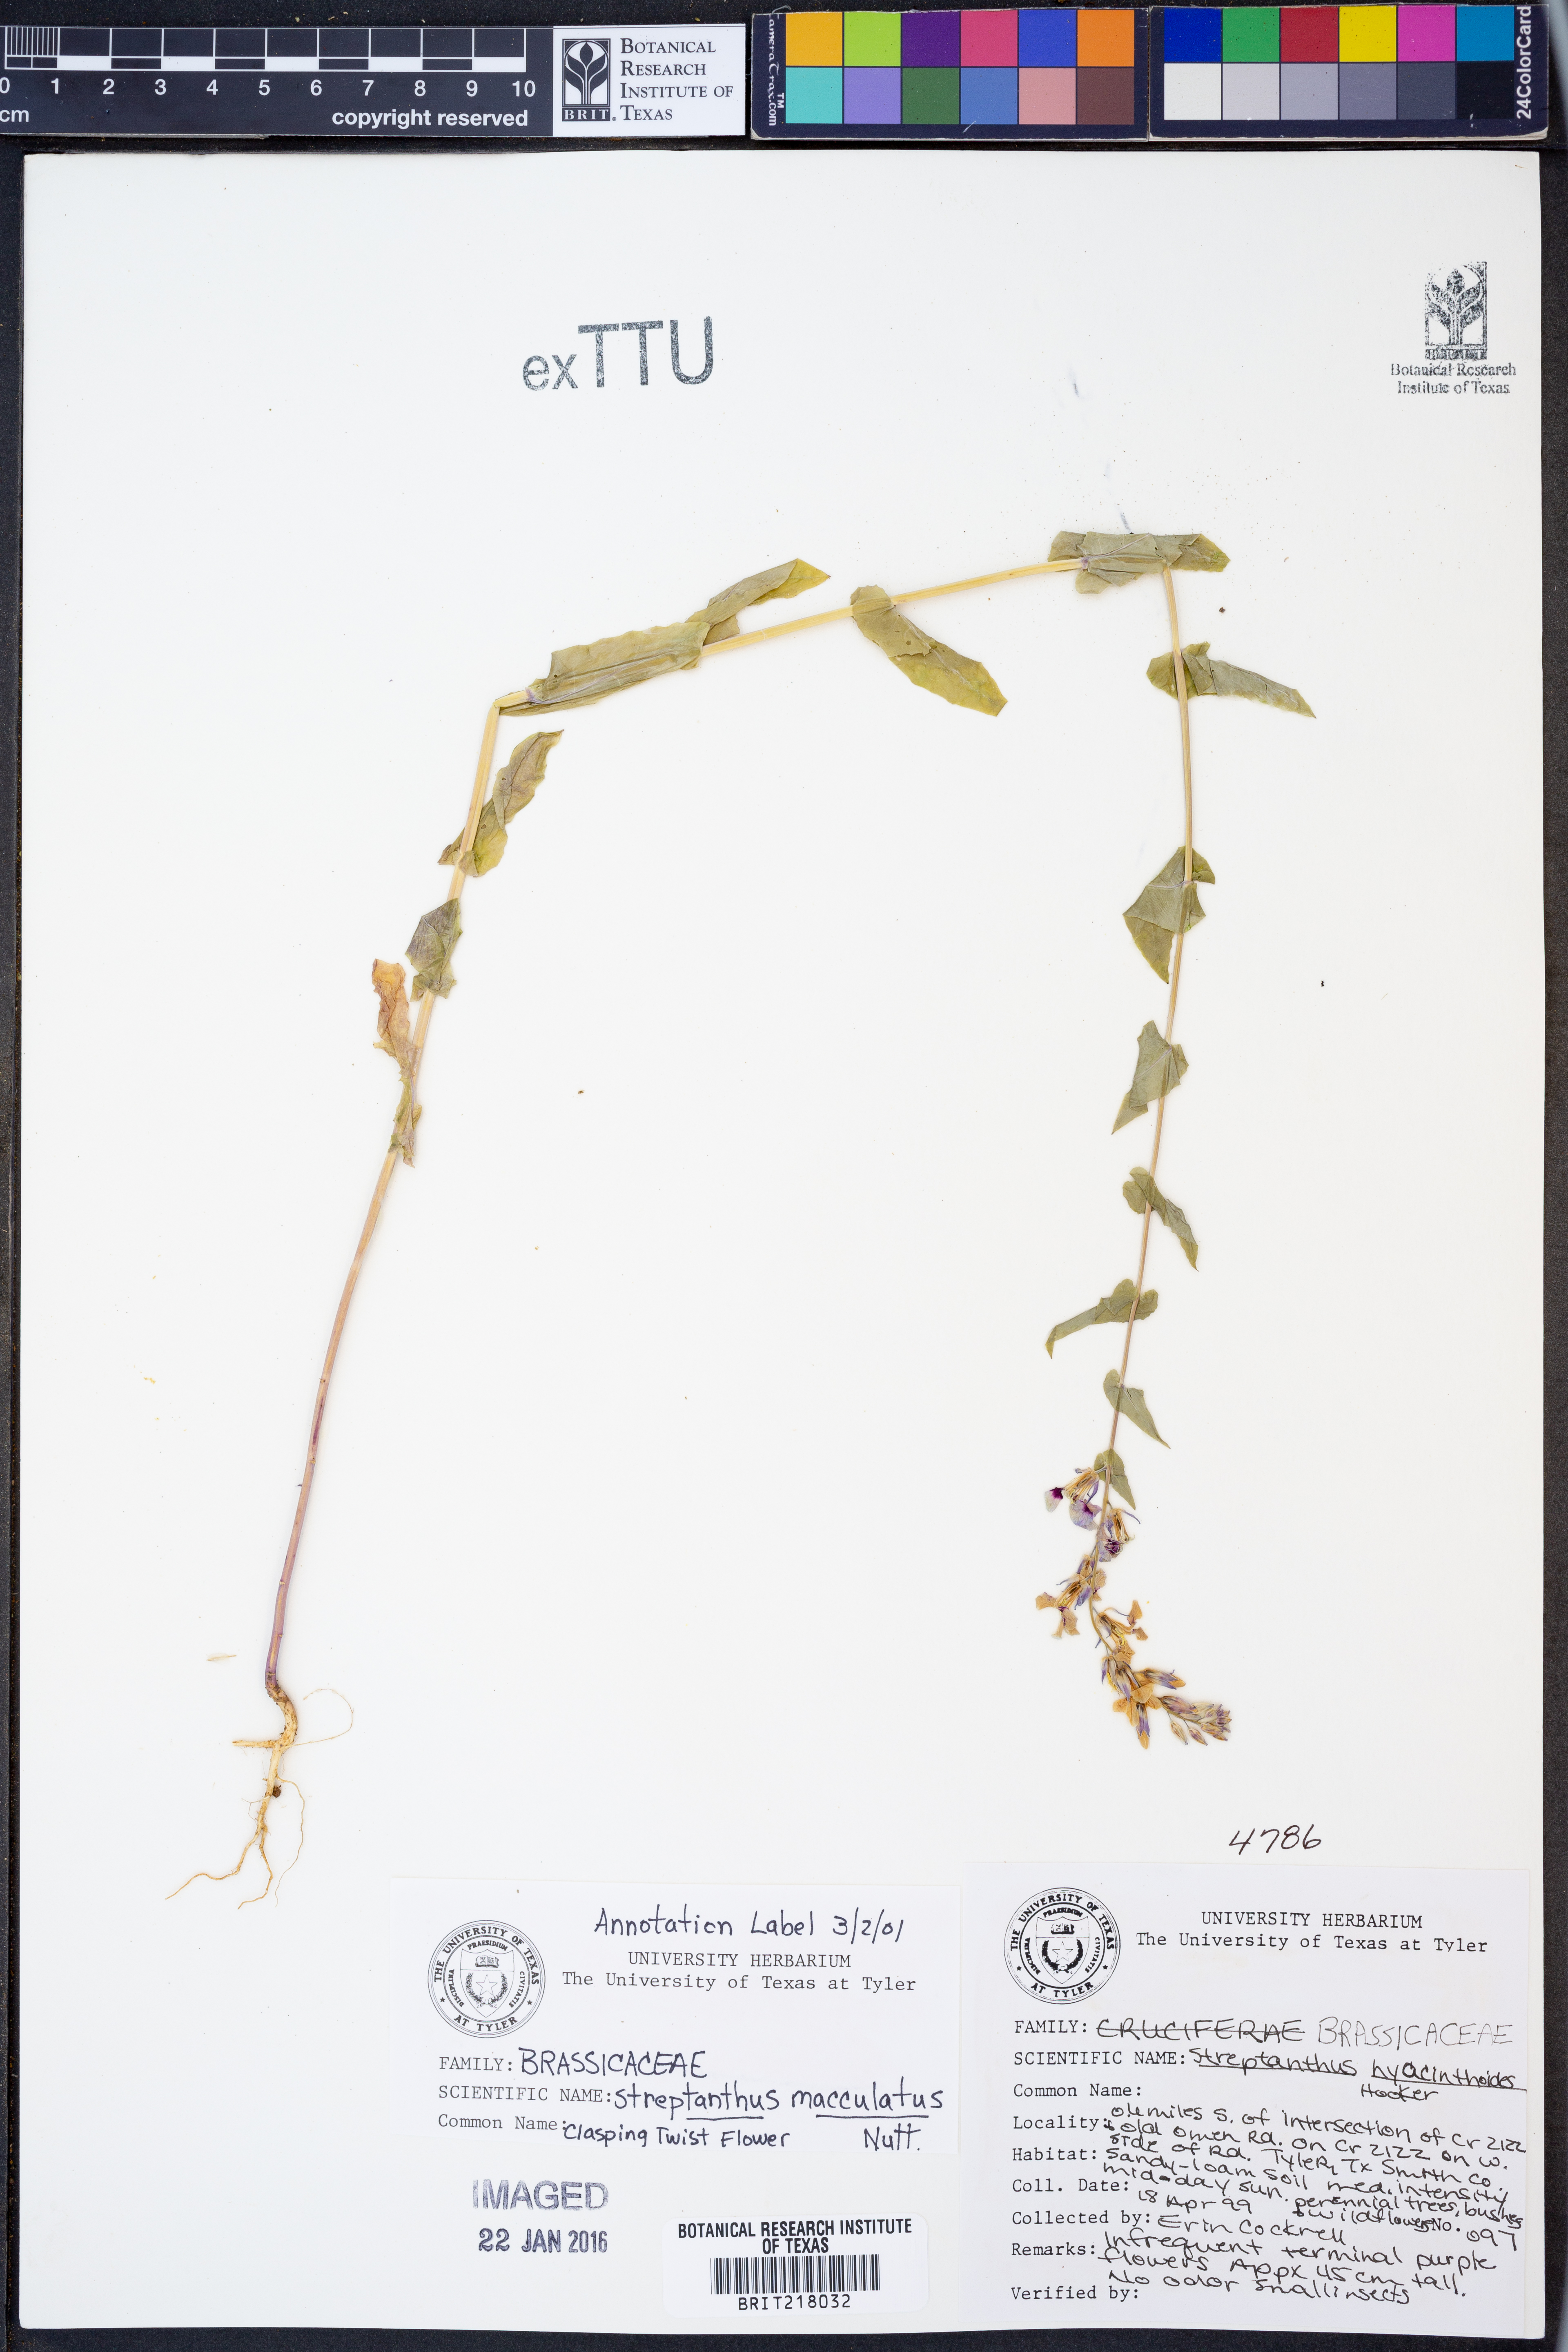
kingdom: Plantae
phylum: Tracheophyta
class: Magnoliopsida
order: Brassicales
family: Brassicaceae
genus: Streptanthus
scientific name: Streptanthus maculatus
